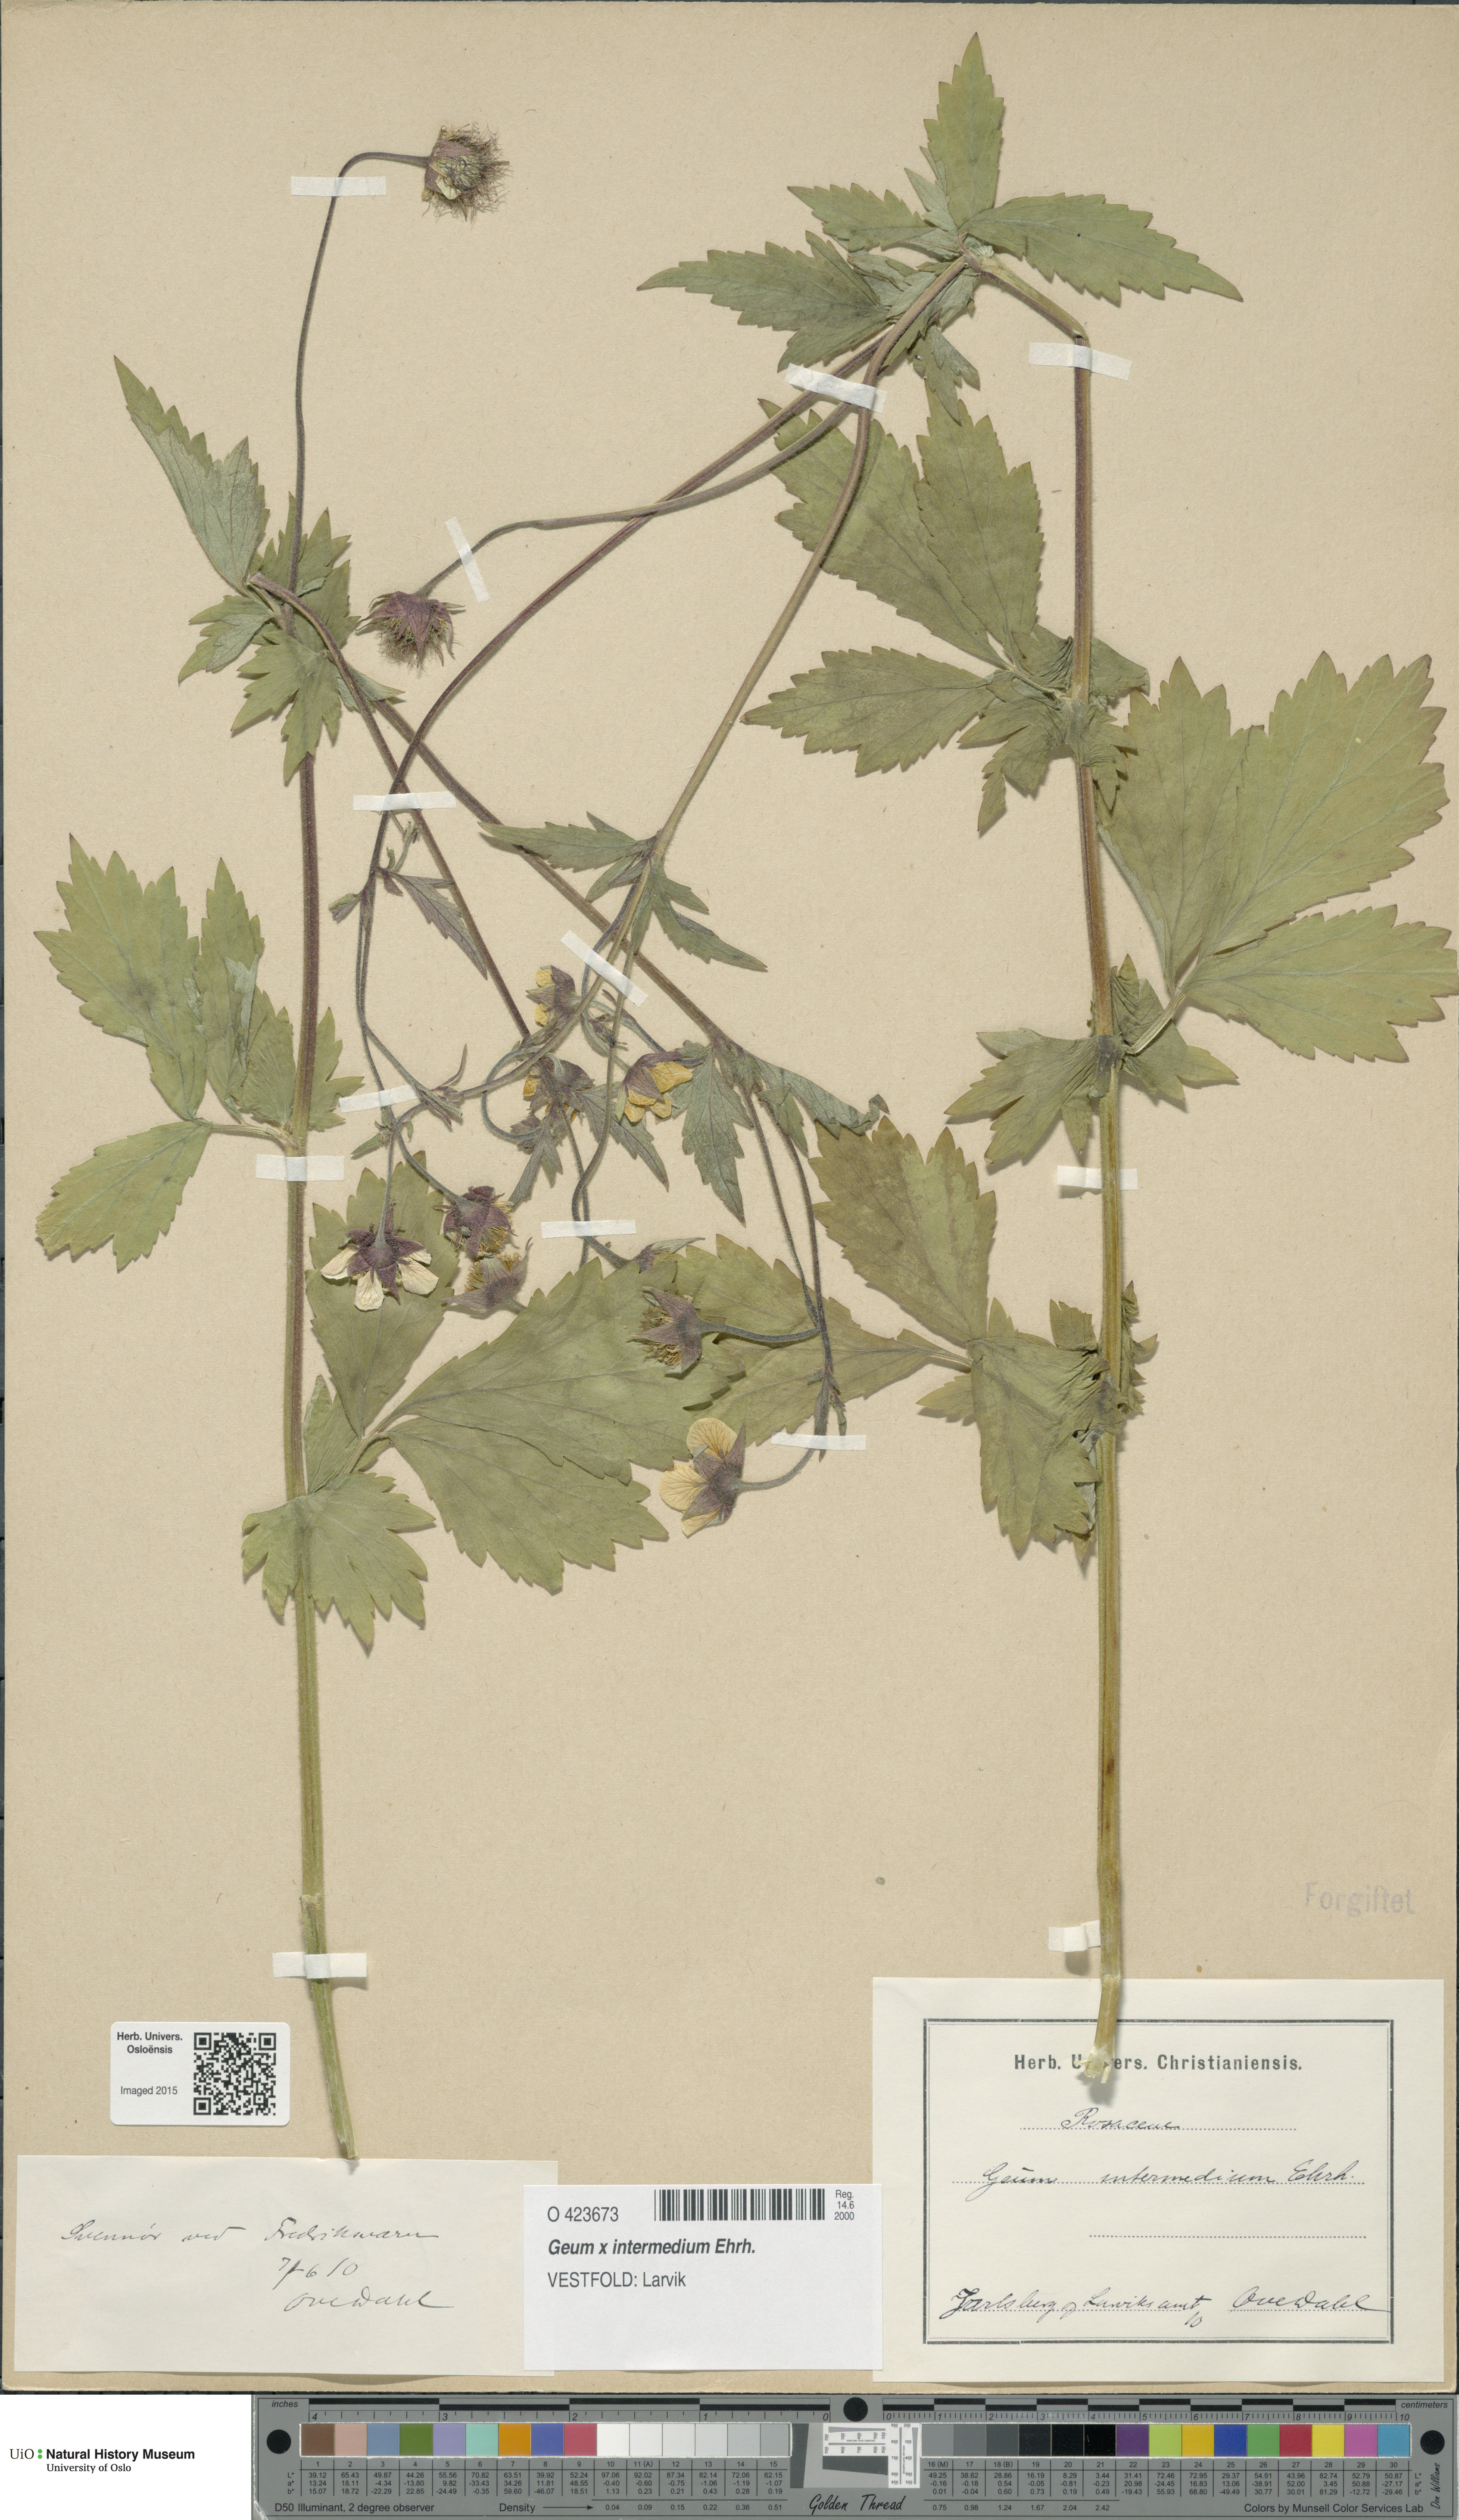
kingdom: Plantae
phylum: Tracheophyta
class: Magnoliopsida
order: Rosales
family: Rosaceae
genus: Geum
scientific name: Geum intermedium
